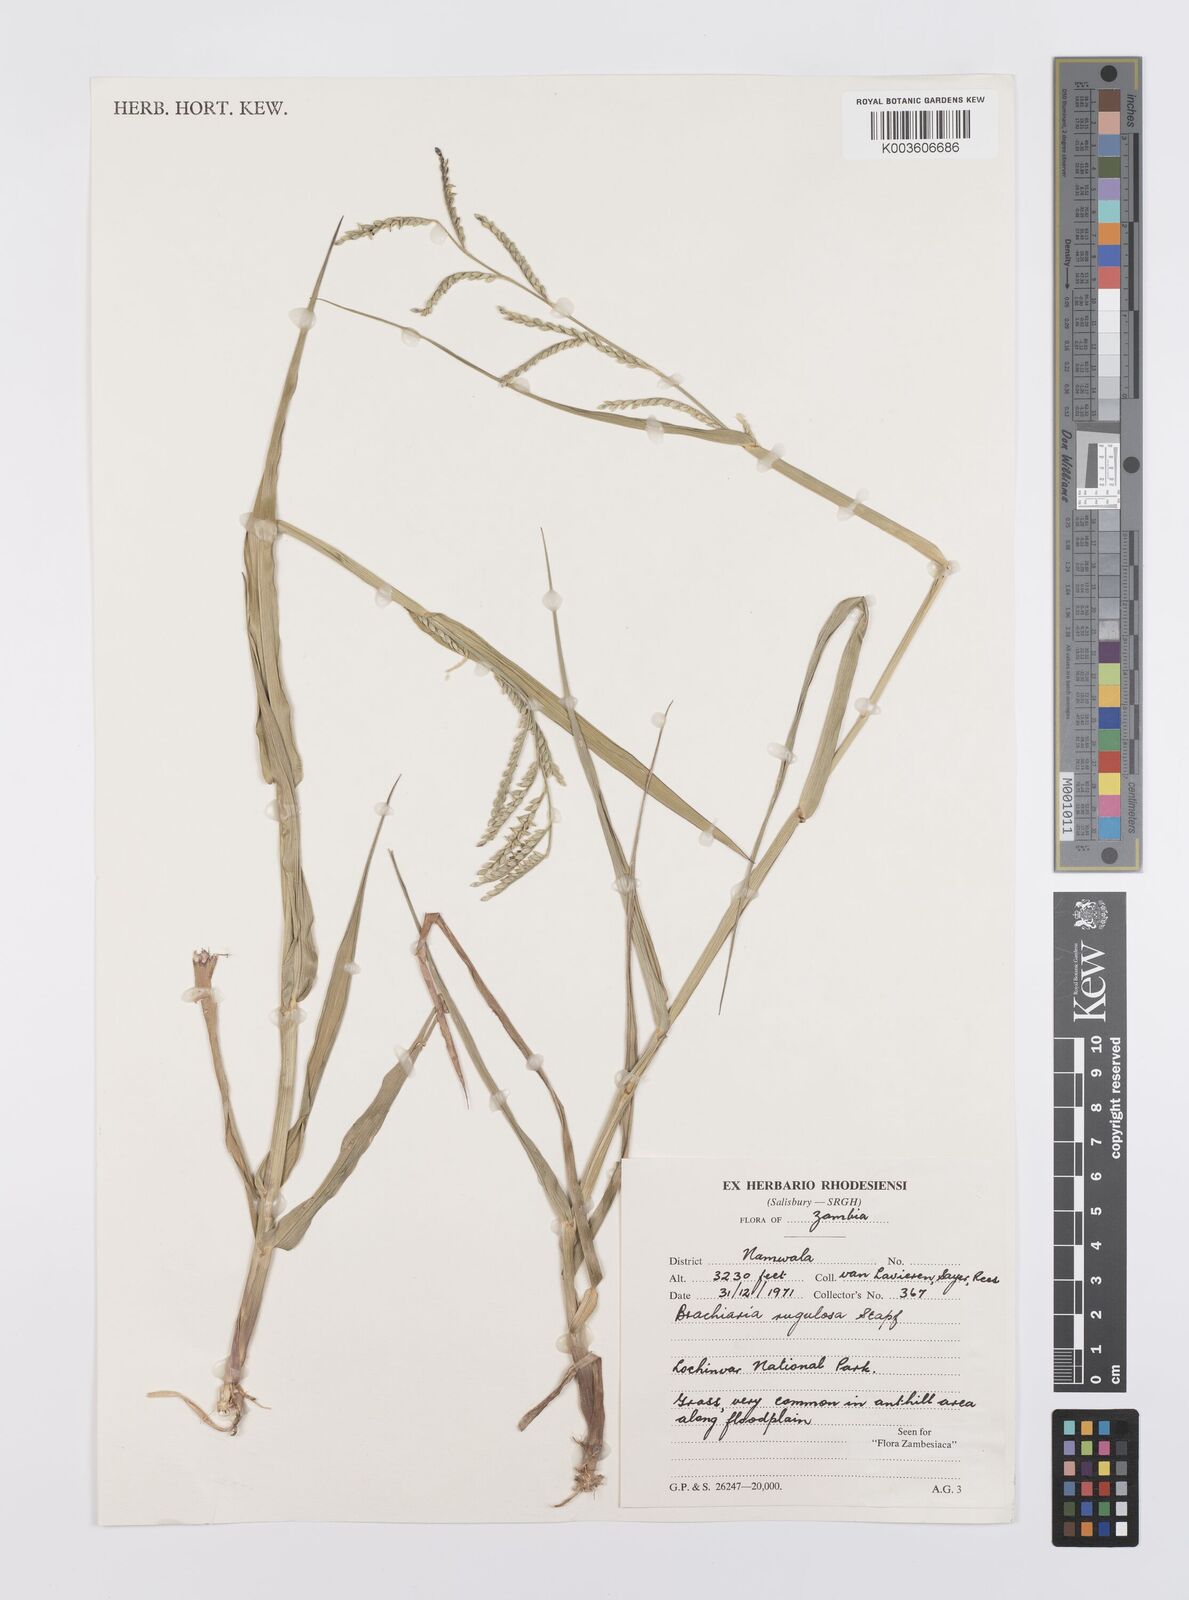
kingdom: Plantae
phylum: Tracheophyta
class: Liliopsida
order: Poales
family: Poaceae
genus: Urochloa
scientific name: Urochloa rugulosa
